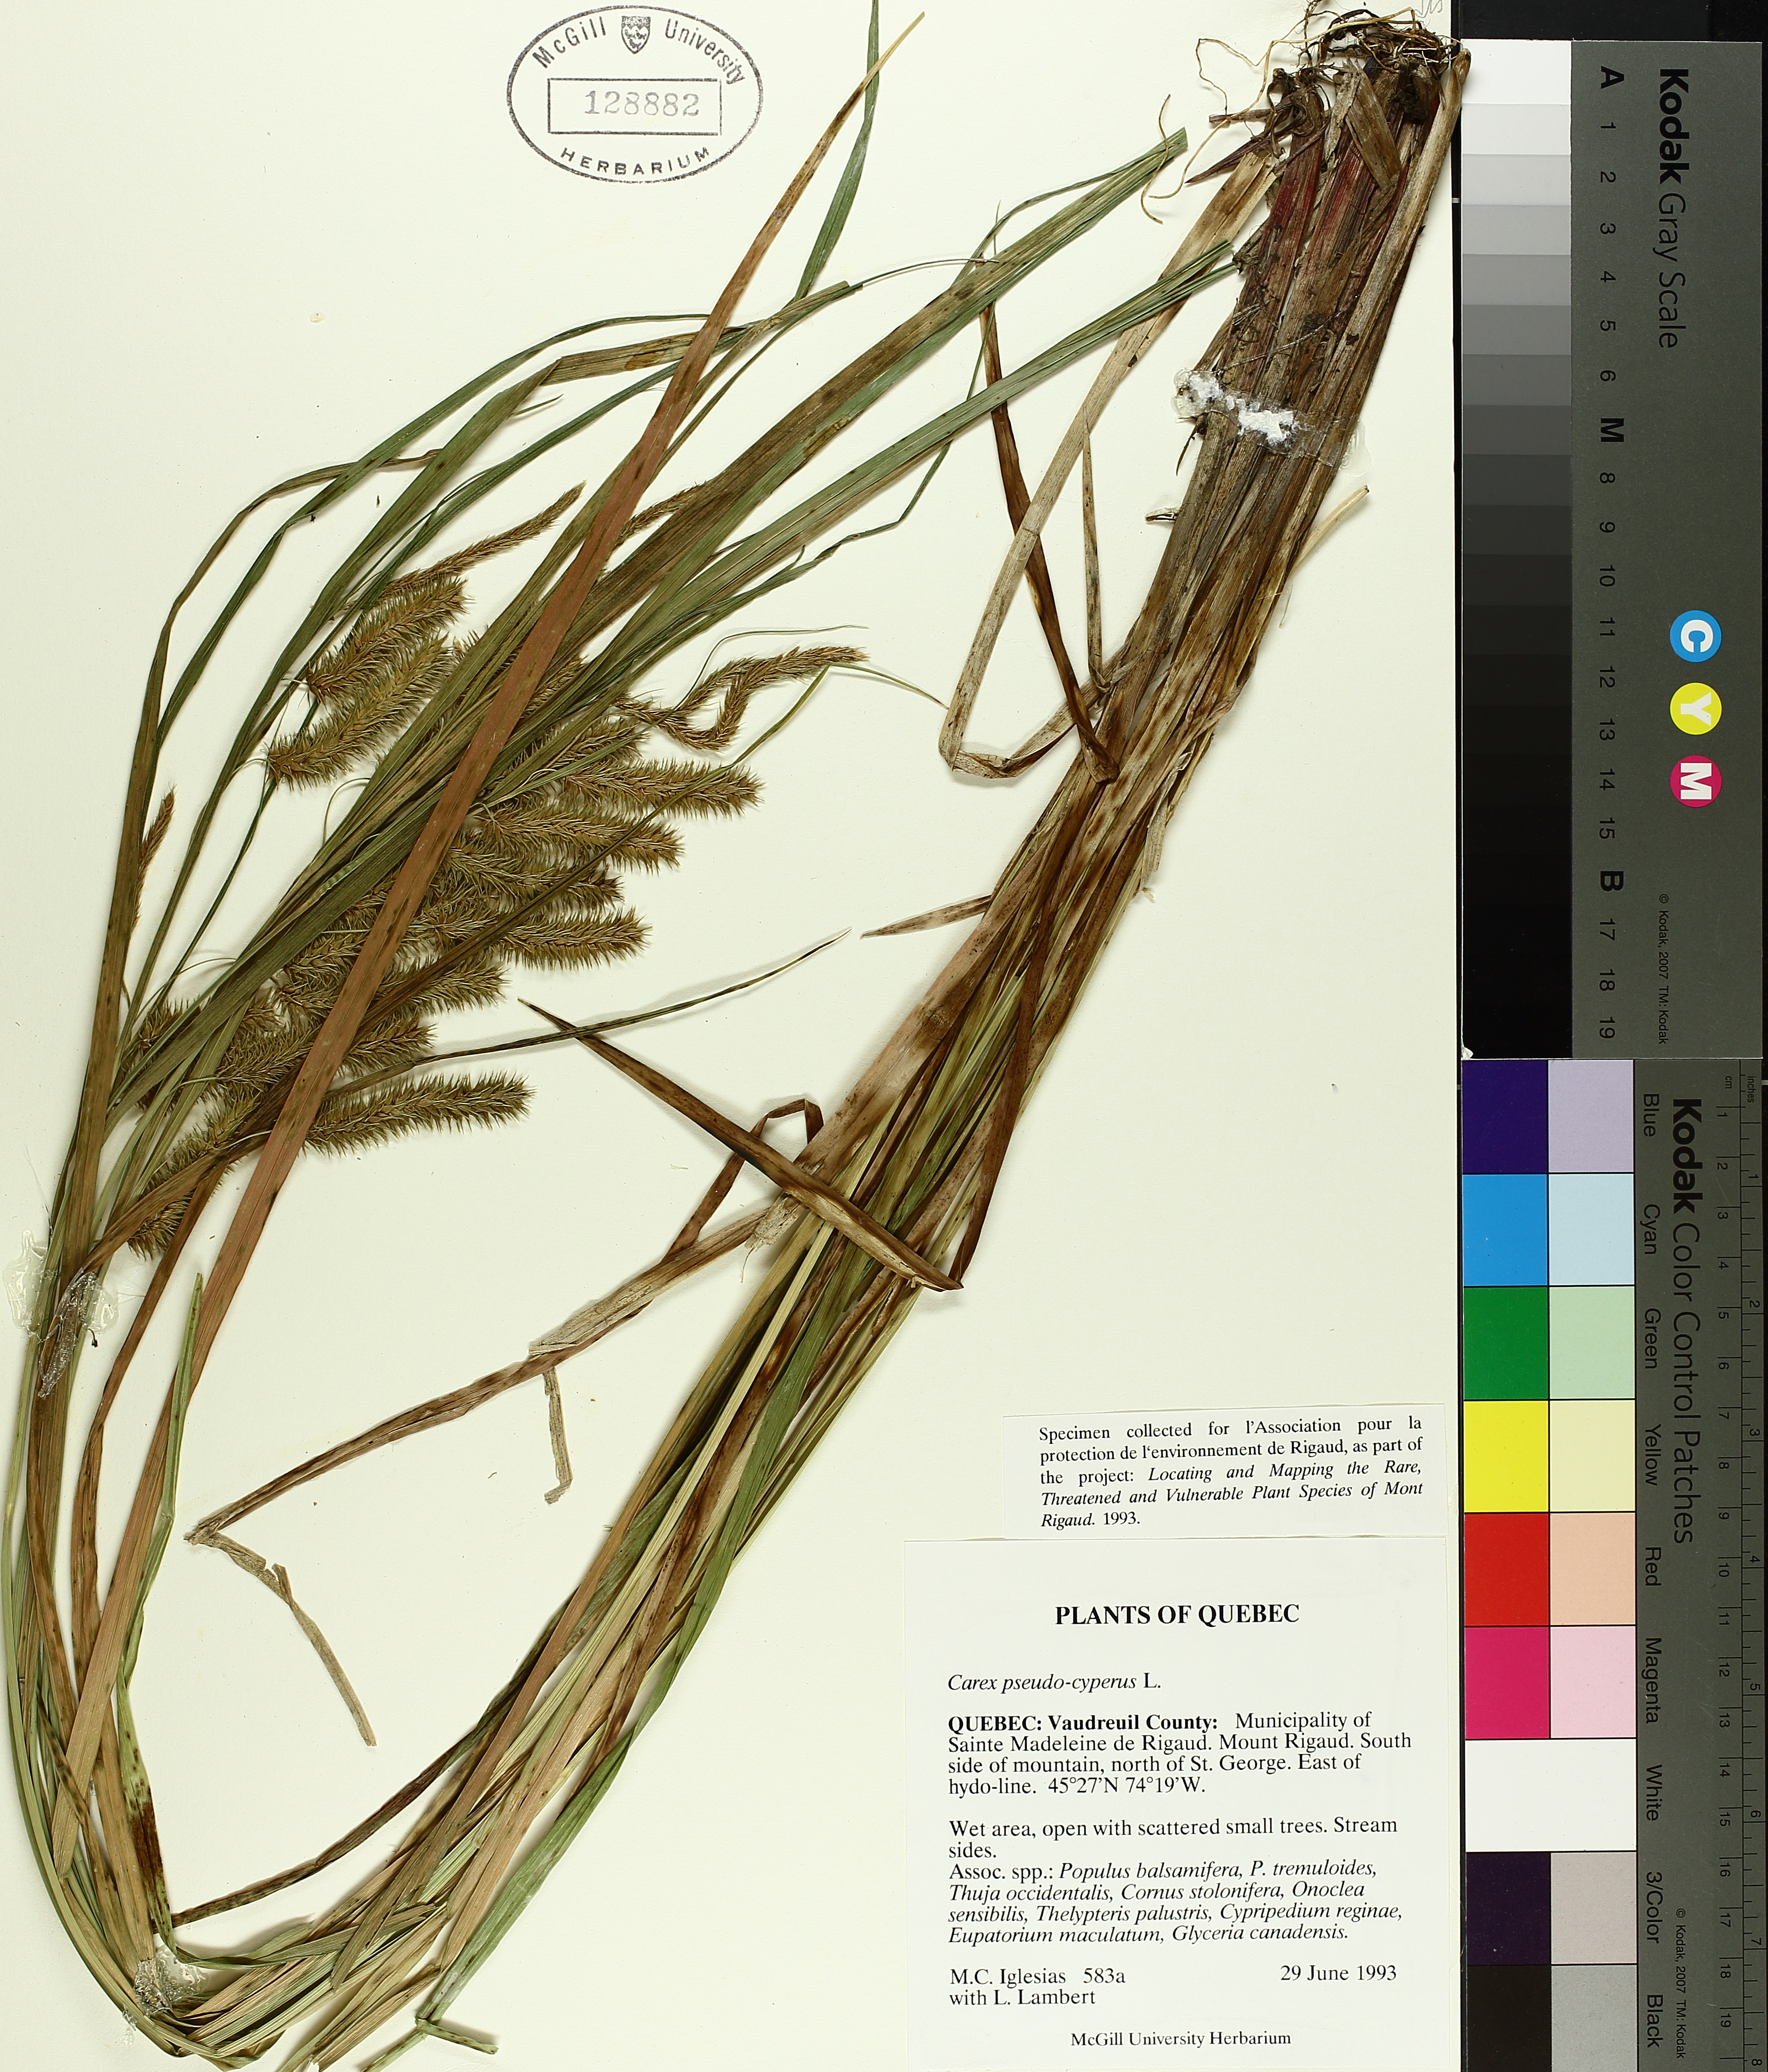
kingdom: Plantae
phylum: Tracheophyta
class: Liliopsida
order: Poales
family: Cyperaceae
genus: Carex
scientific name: Carex pseudocyperus
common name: Cyperus sedge
